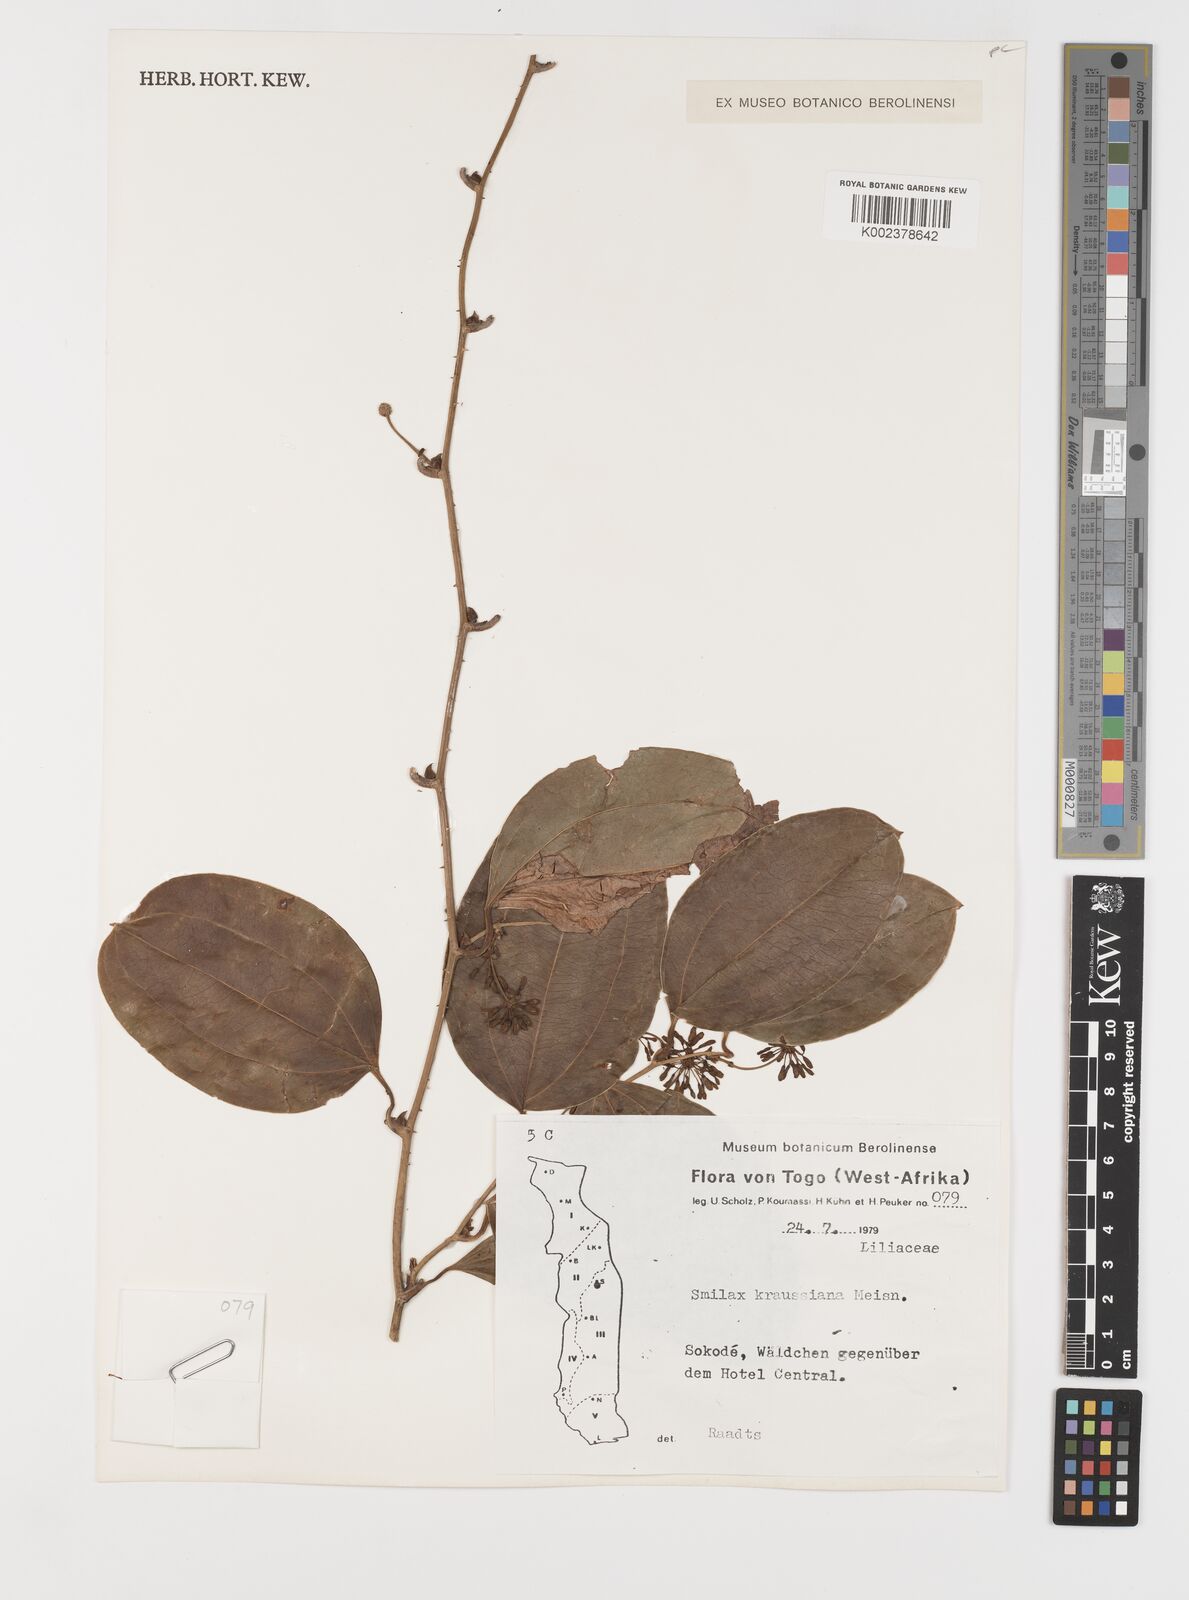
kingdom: Plantae
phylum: Tracheophyta
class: Liliopsida
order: Liliales
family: Smilacaceae
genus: Smilax
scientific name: Smilax anceps
